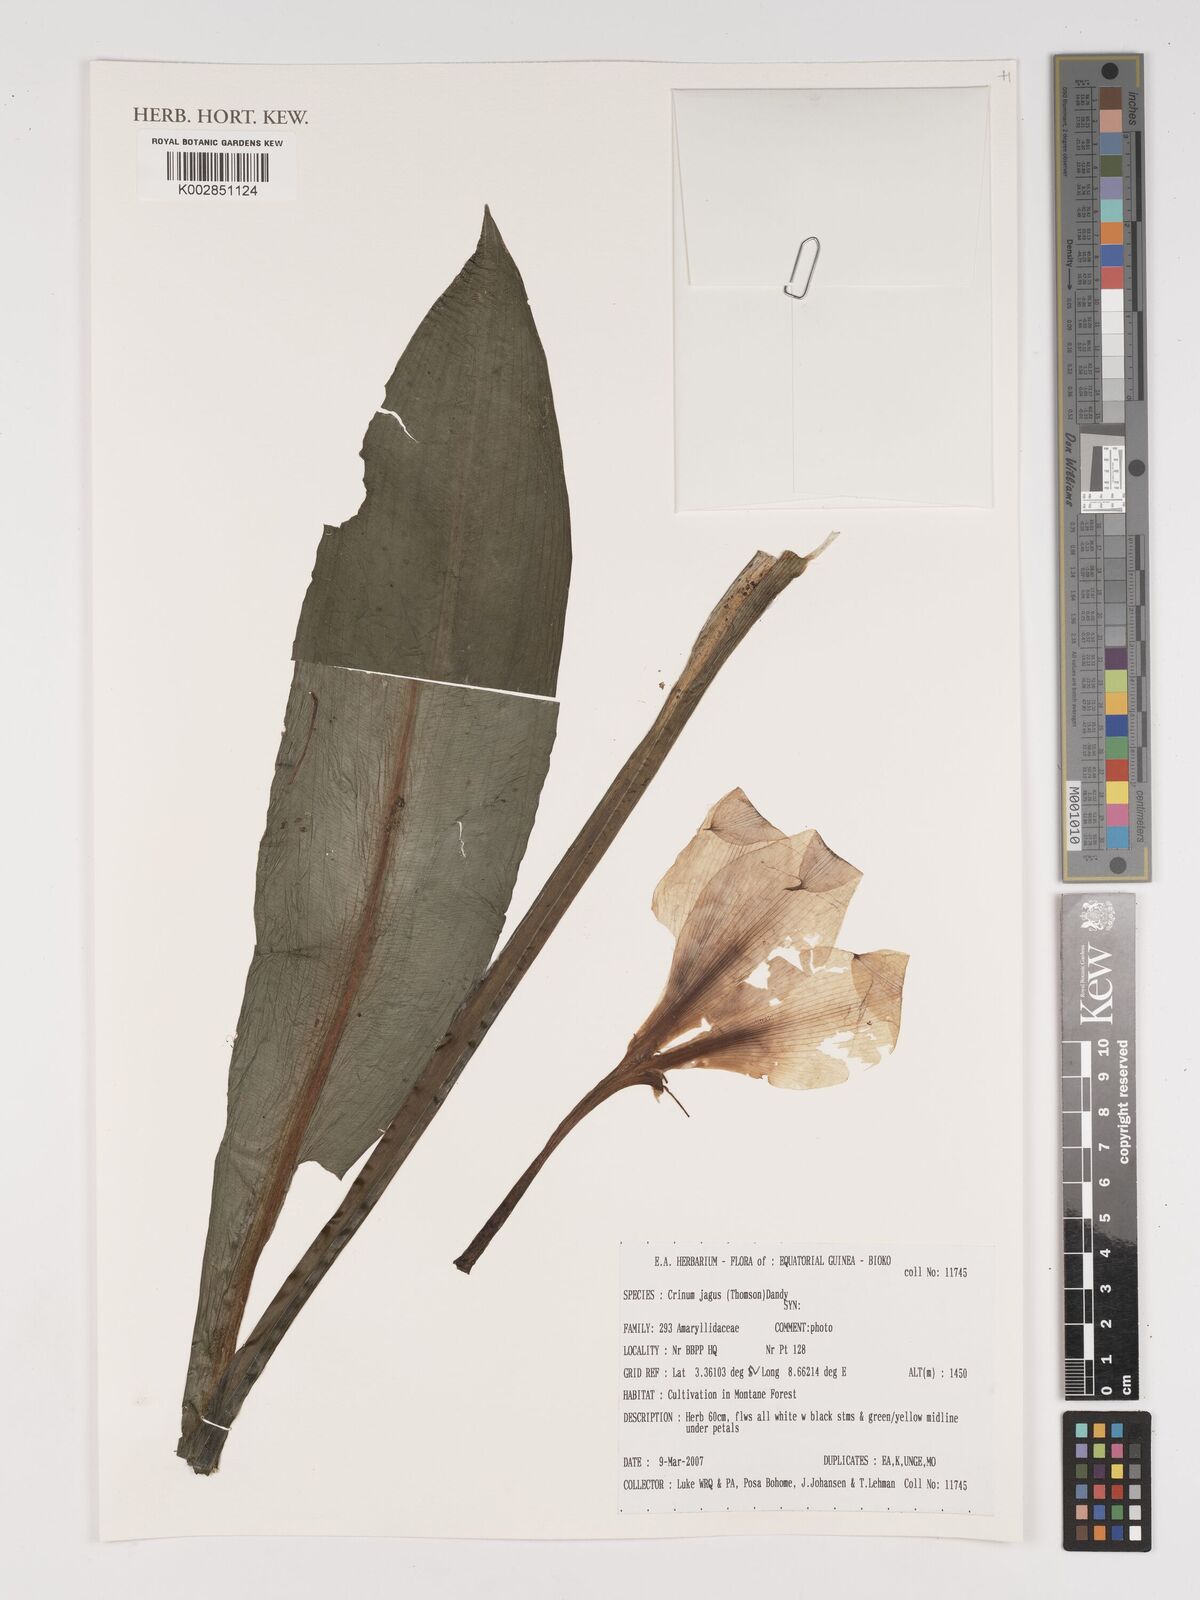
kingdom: Plantae
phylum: Tracheophyta
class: Liliopsida
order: Asparagales
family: Amaryllidaceae
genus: Crinum
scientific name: Crinum jagus
